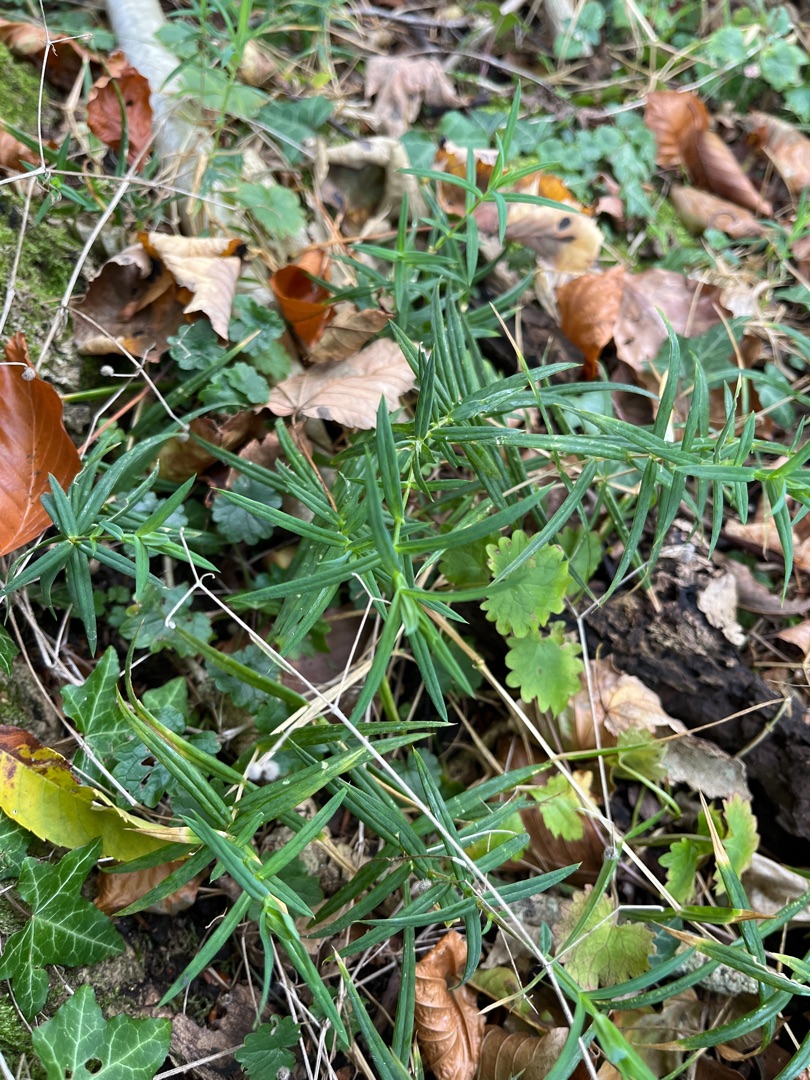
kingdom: Plantae
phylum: Tracheophyta
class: Magnoliopsida
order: Caryophyllales
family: Caryophyllaceae
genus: Rabelera
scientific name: Rabelera holostea
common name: Stor fladstjerne
